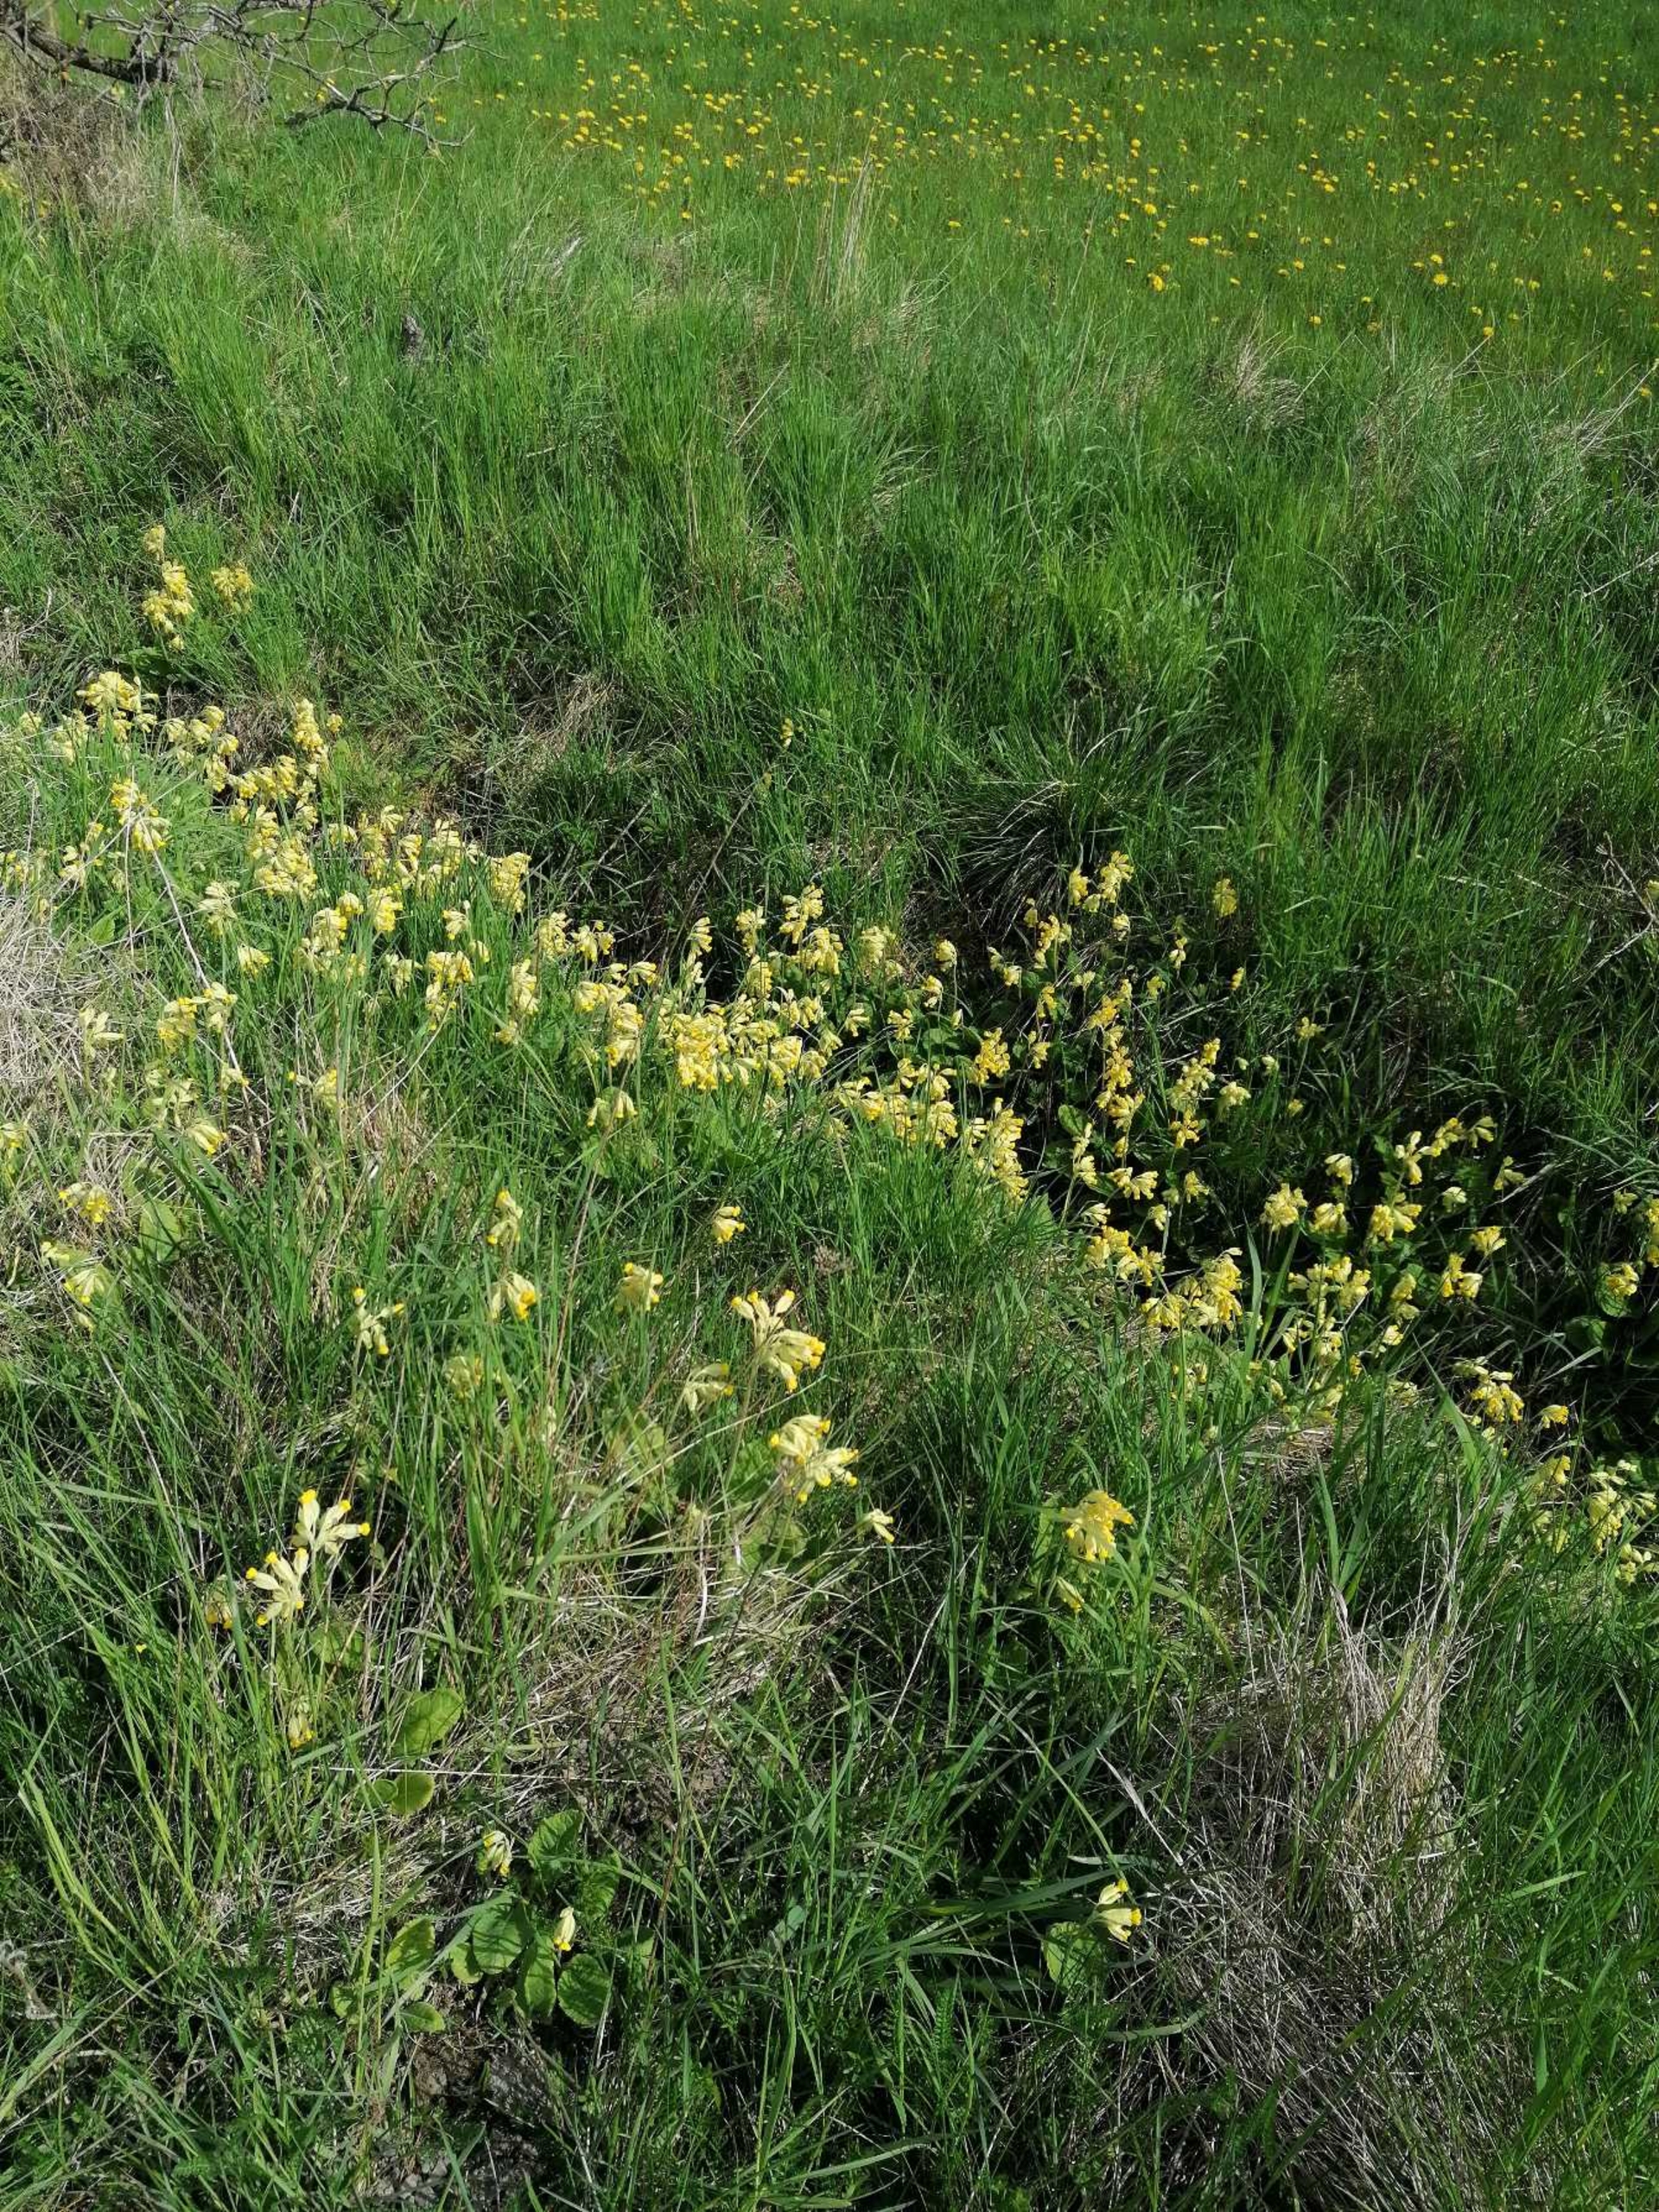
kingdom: Plantae
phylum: Tracheophyta
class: Magnoliopsida
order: Ericales
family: Primulaceae
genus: Primula
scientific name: Primula veris
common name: Hulkravet kodriver
